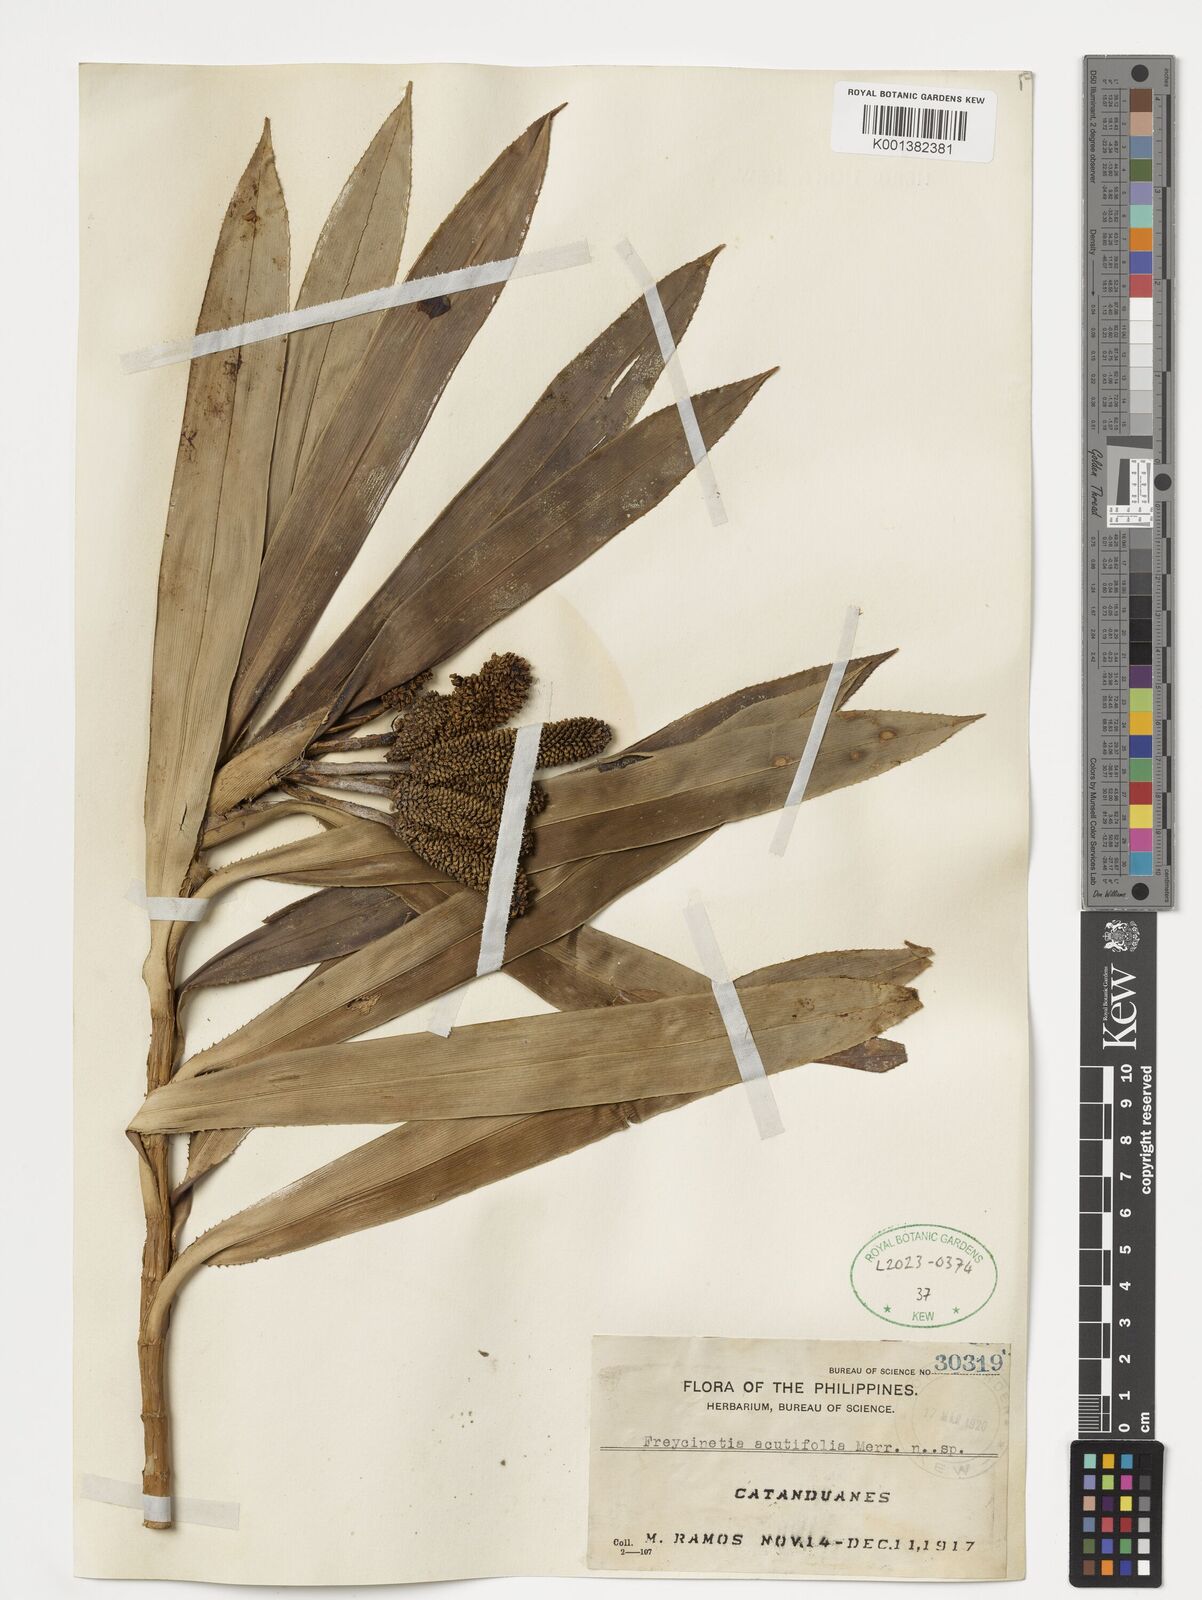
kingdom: Plantae
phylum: Tracheophyta
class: Liliopsida
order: Pandanales
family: Pandanaceae
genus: Freycinetia
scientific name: Freycinetia acutifolia
